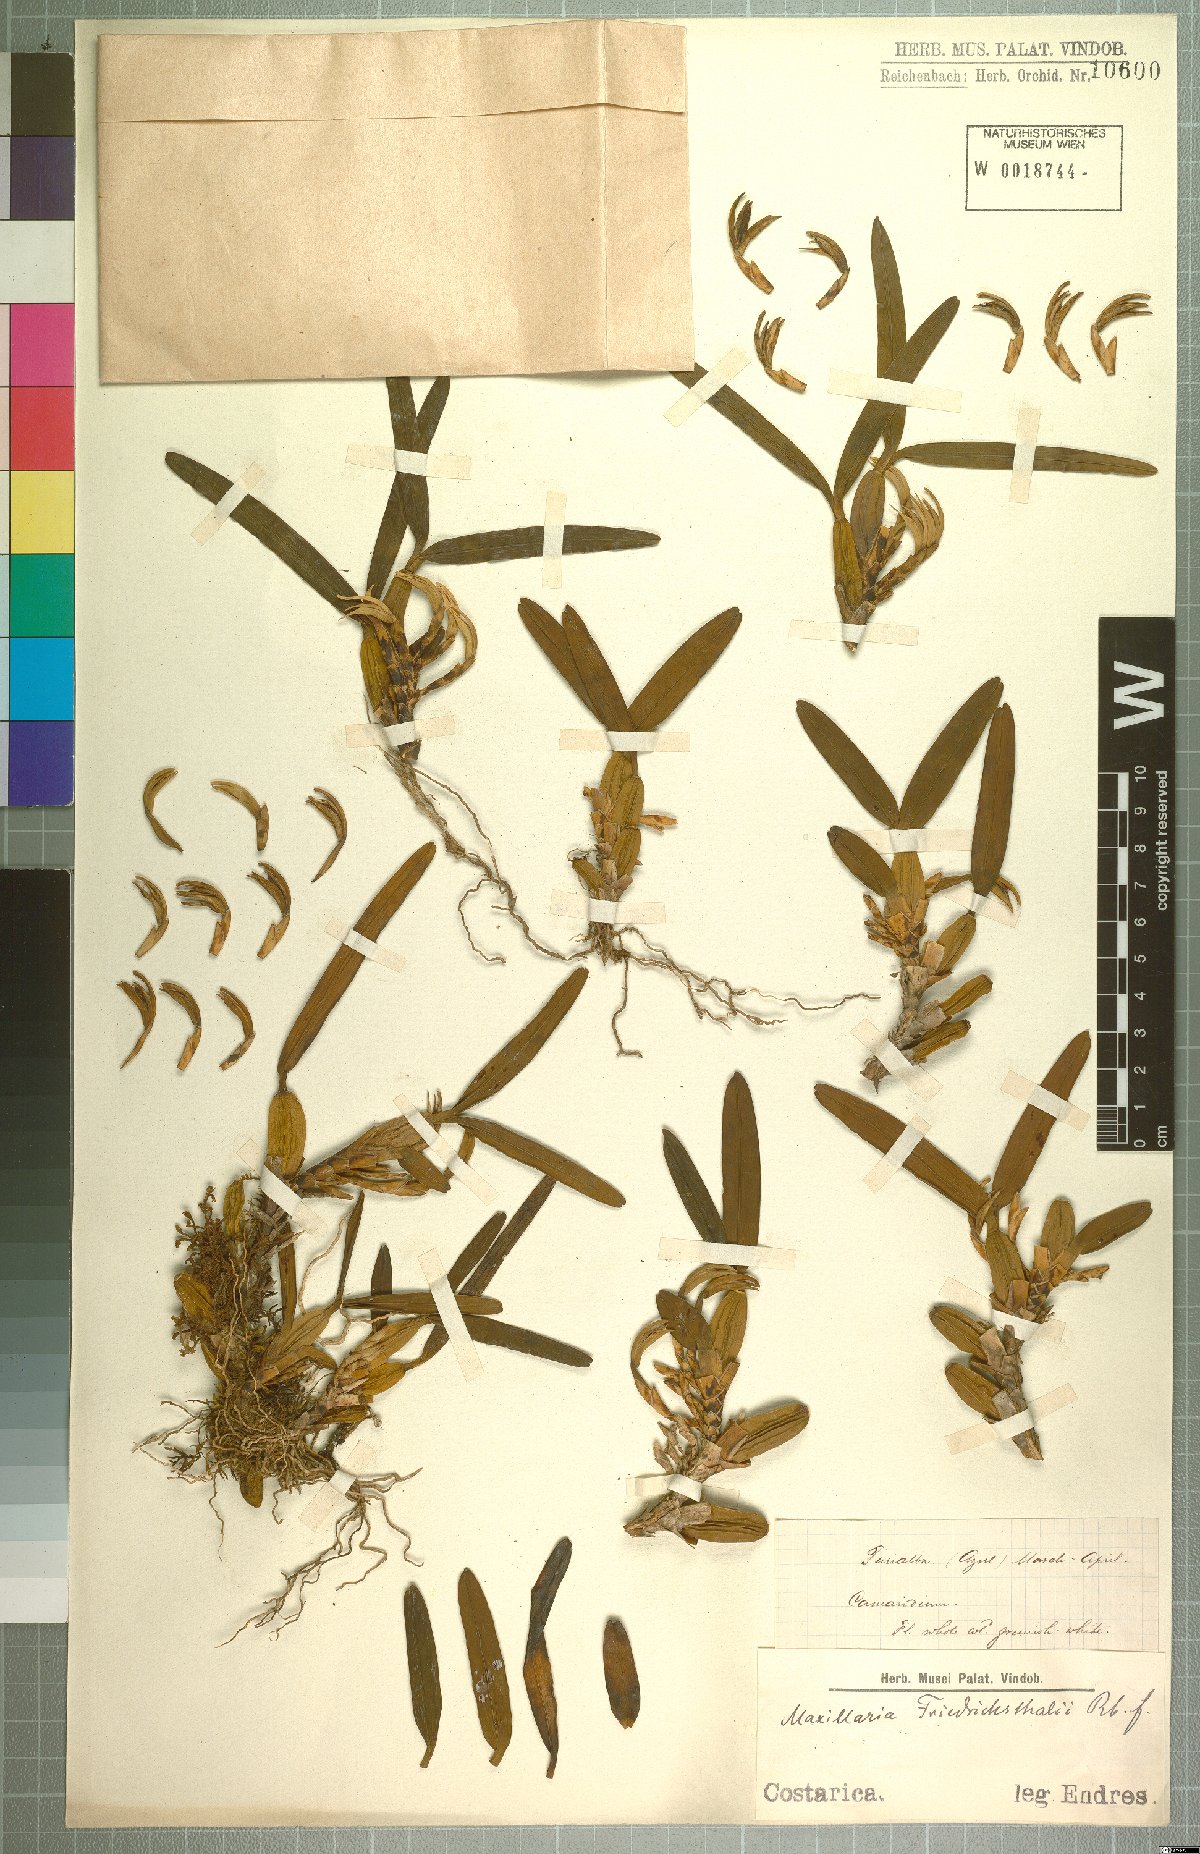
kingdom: Plantae
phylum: Tracheophyta
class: Liliopsida
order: Asparagales
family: Orchidaceae
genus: Maxillaria
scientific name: Maxillaria friedrichsthalii
